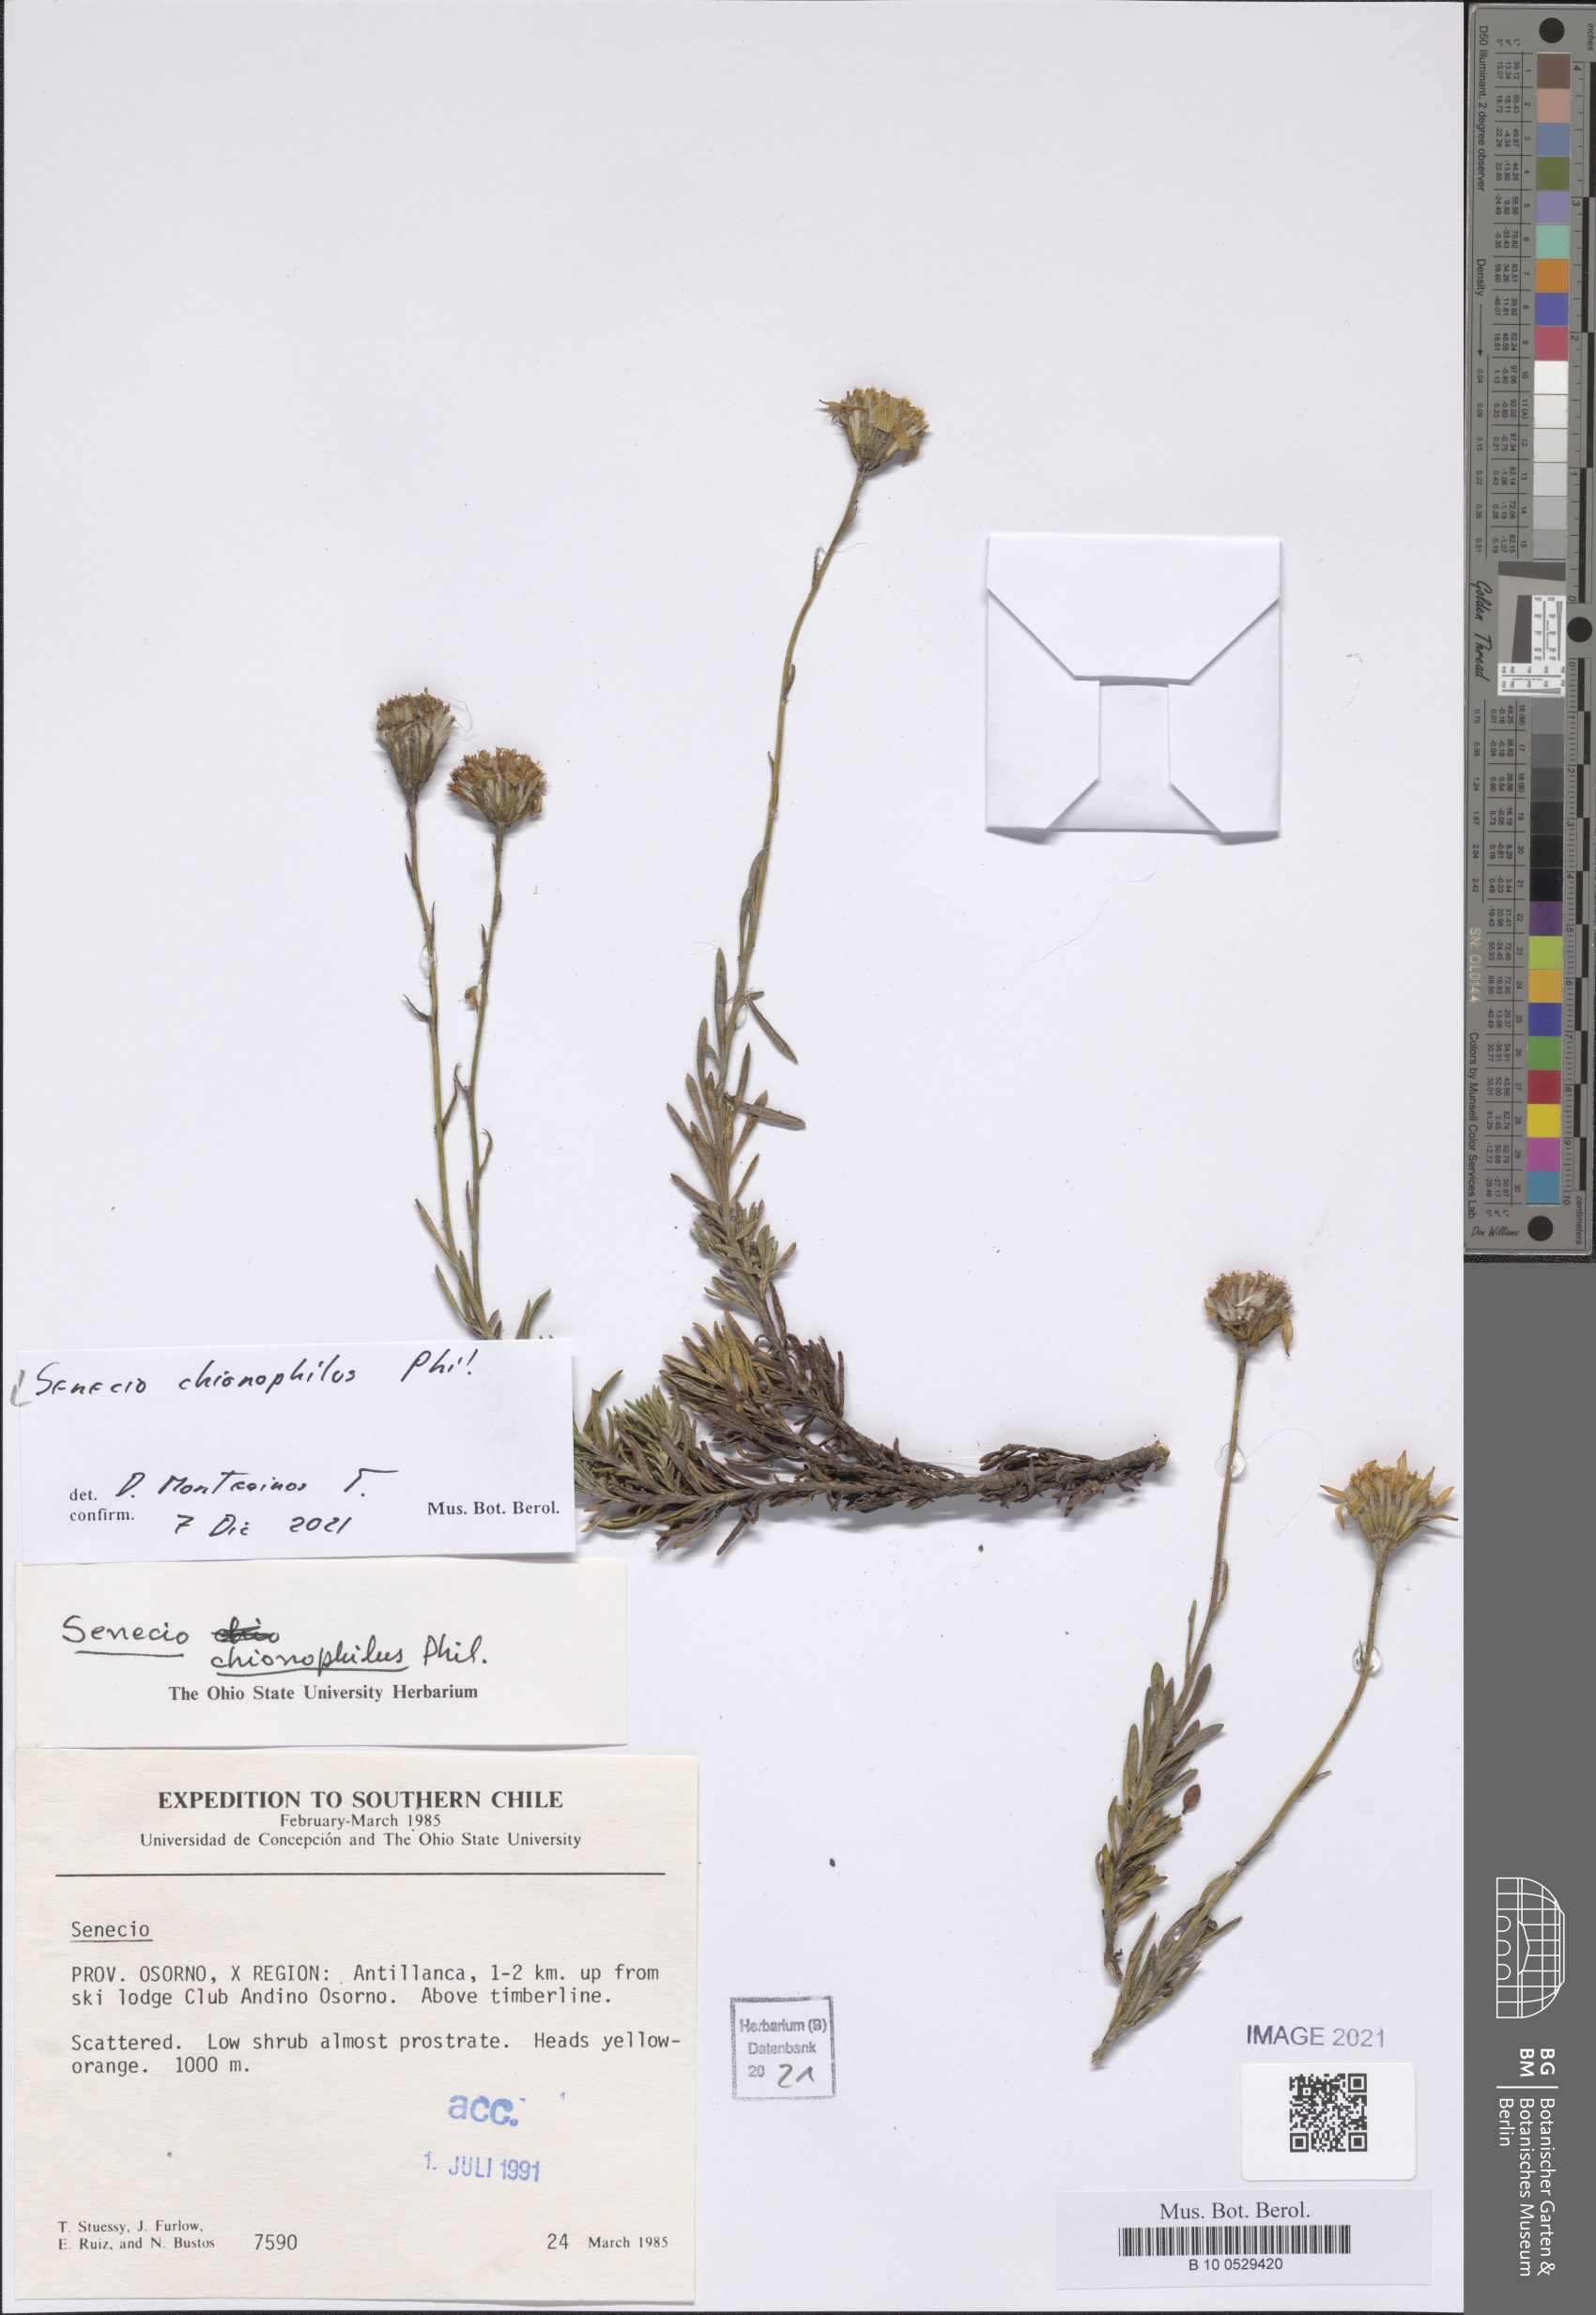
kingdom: Plantae
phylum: Tracheophyta
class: Magnoliopsida
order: Asterales
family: Asteraceae
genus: Senecio
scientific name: Senecio chionophilus
